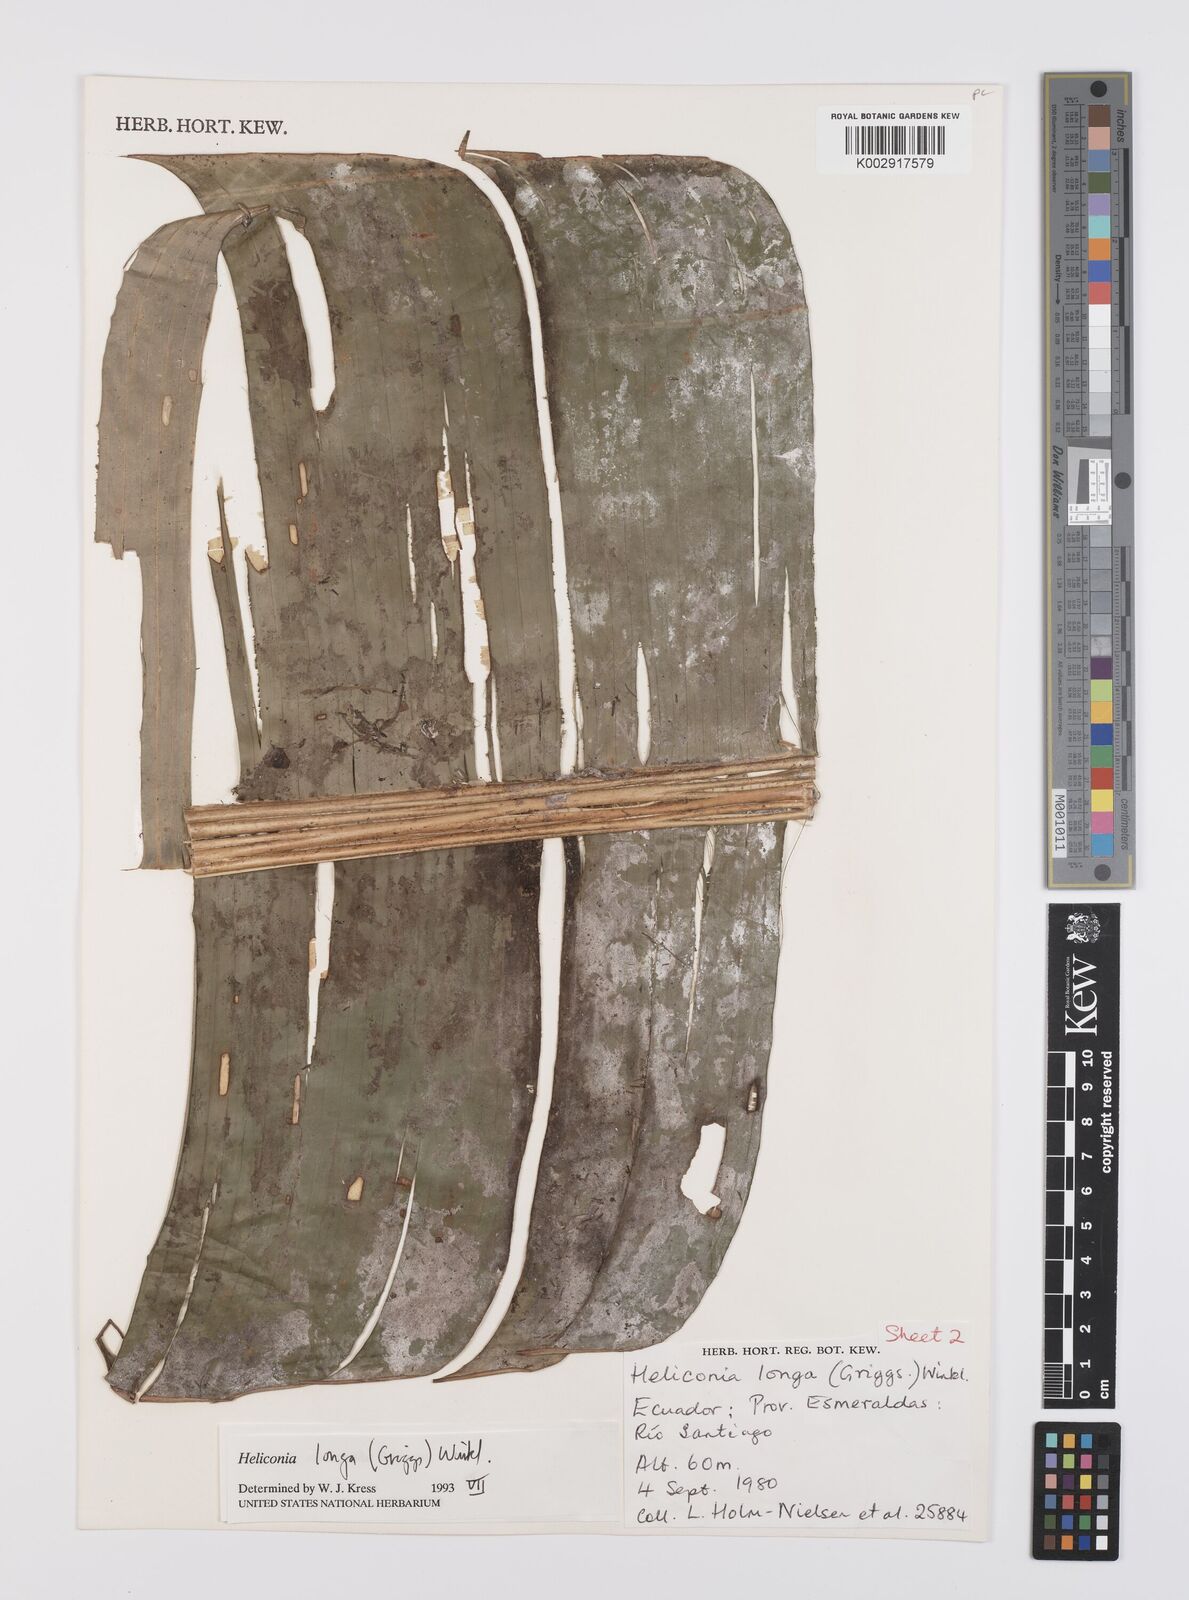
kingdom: Plantae
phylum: Tracheophyta
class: Liliopsida
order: Zingiberales
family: Heliconiaceae
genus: Heliconia
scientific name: Heliconia longa
